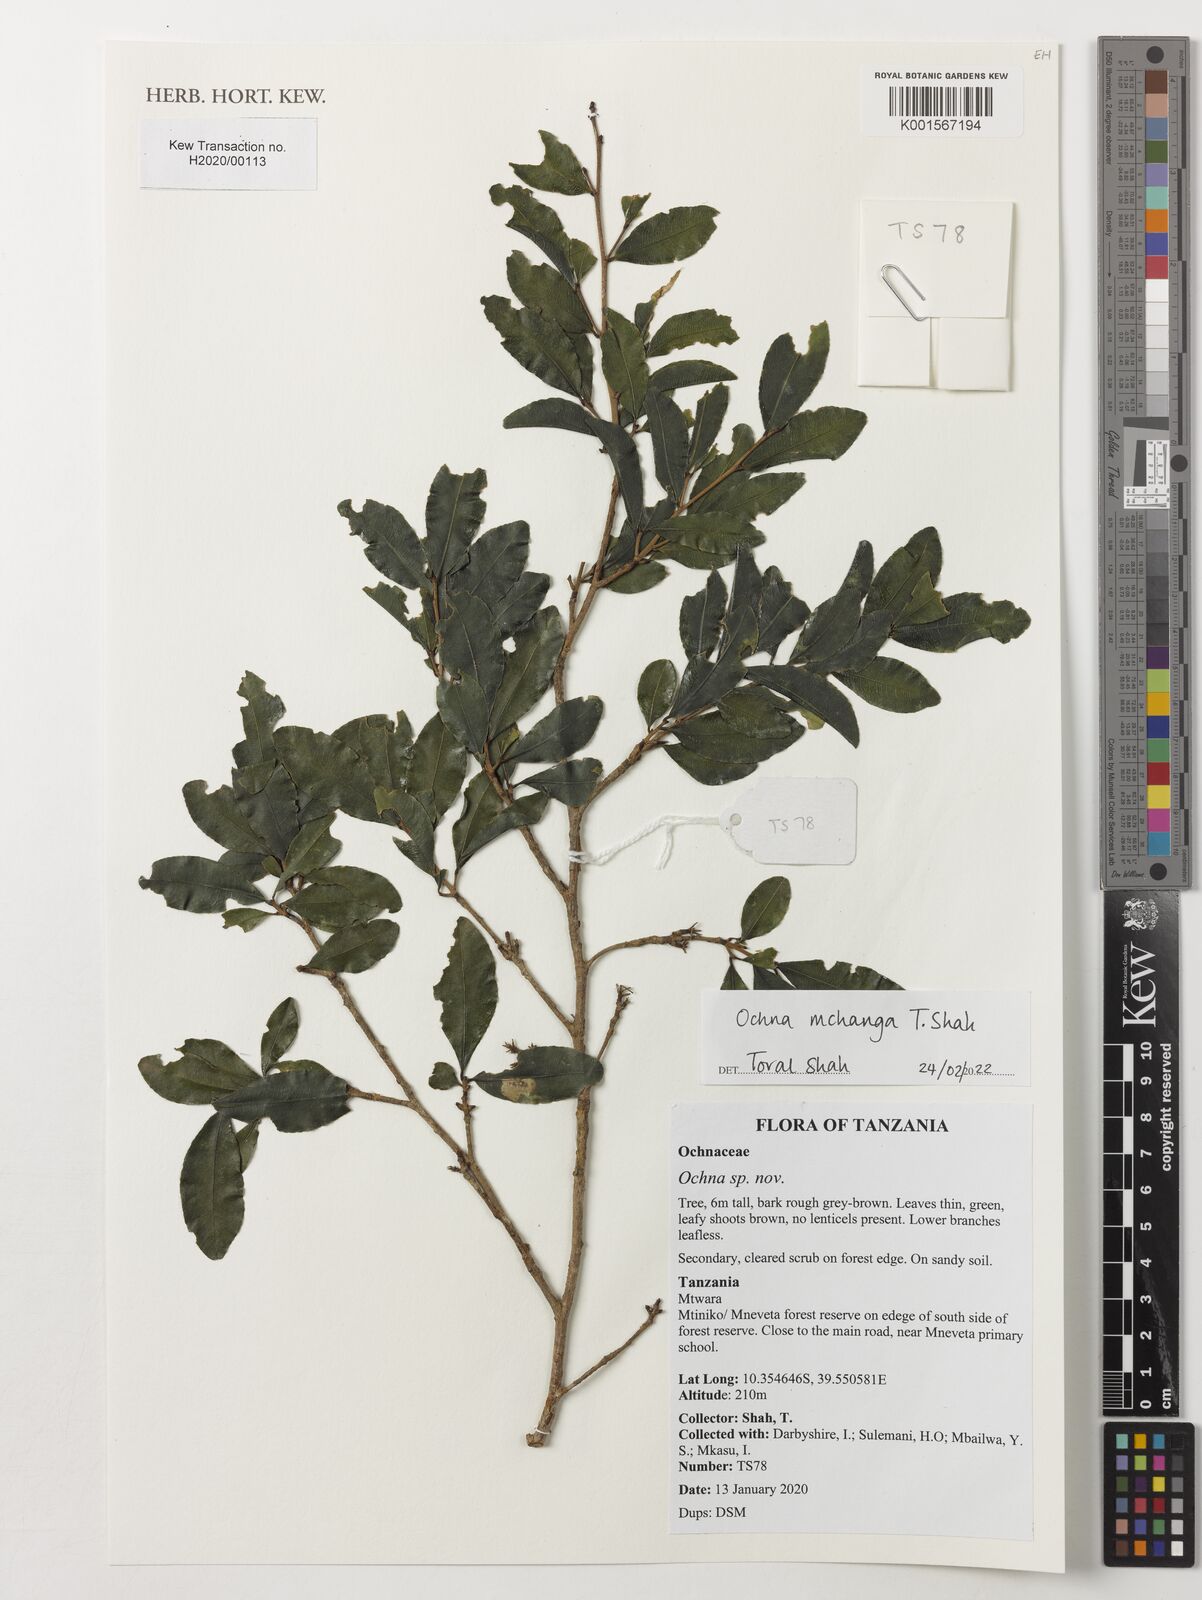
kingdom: Plantae
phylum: Tracheophyta
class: Magnoliopsida
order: Malpighiales
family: Ochnaceae
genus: Ochna
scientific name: Ochna
